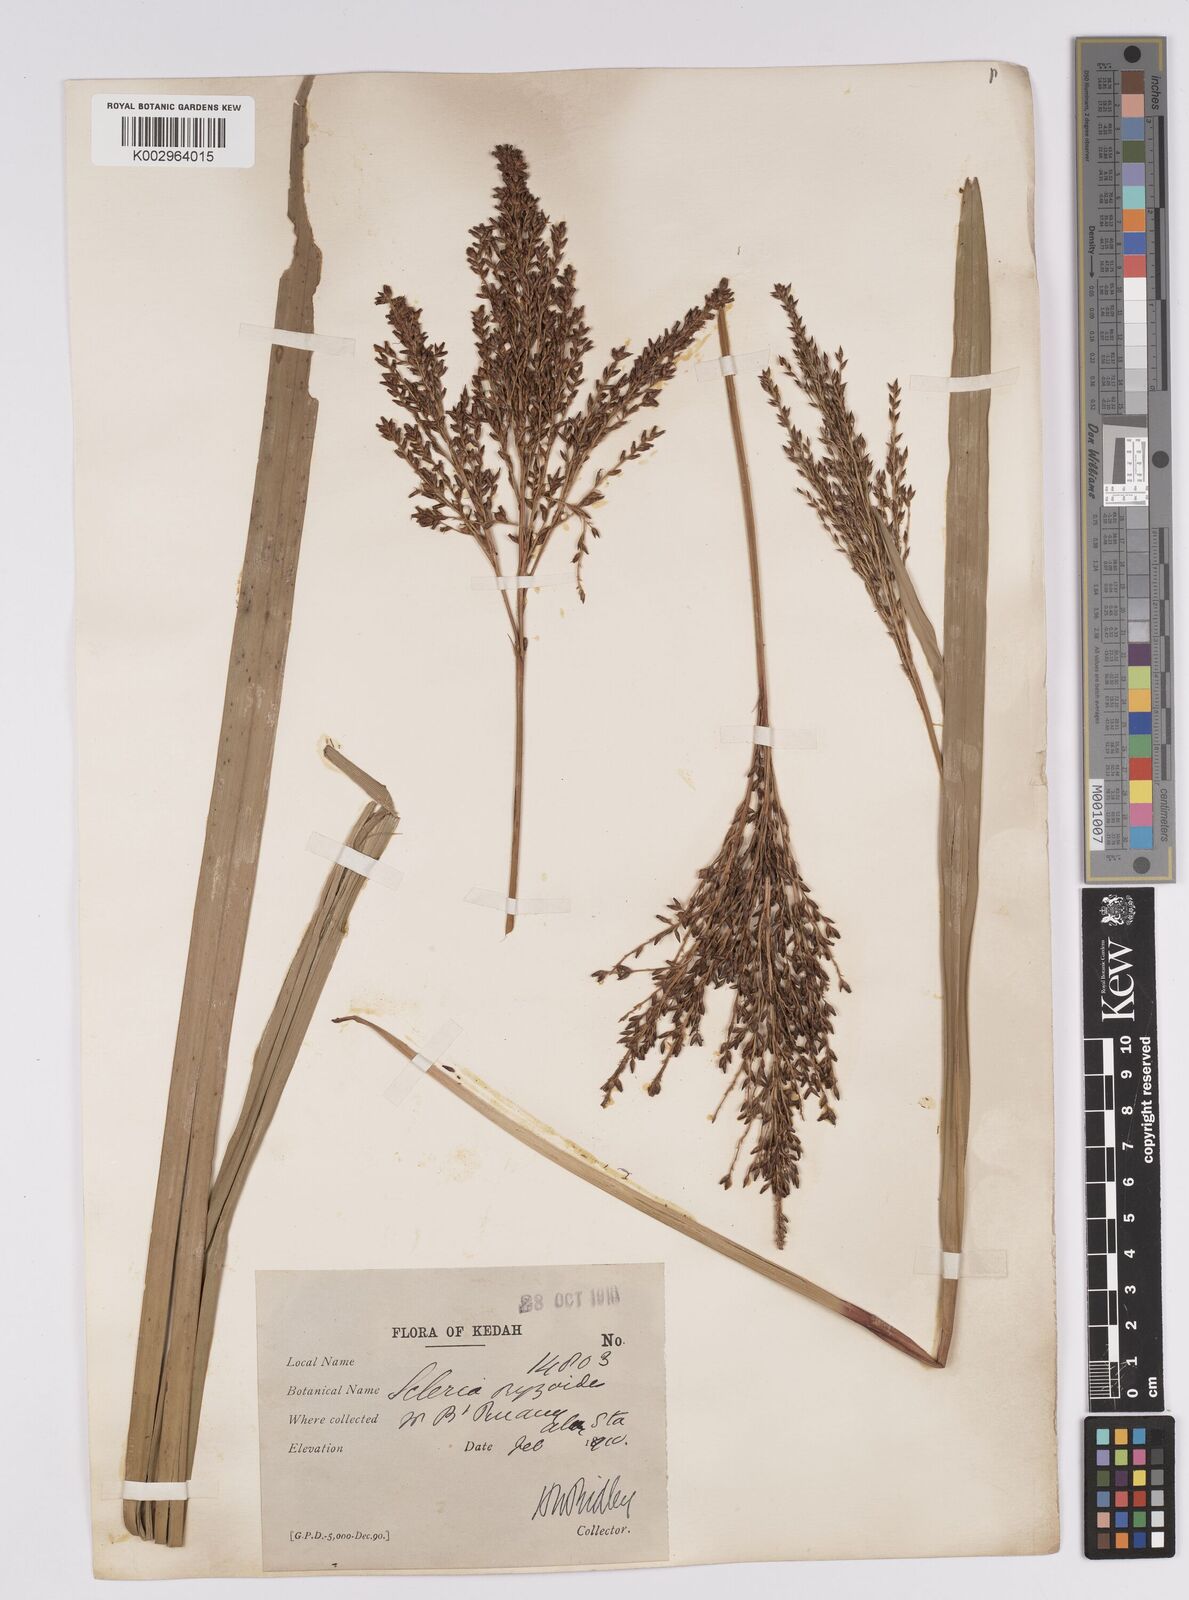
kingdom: Plantae
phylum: Tracheophyta
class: Liliopsida
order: Poales
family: Cyperaceae
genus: Scleria
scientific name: Scleria poiformis
